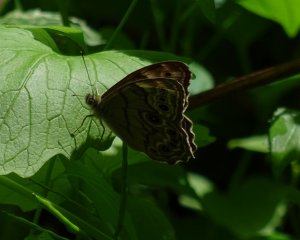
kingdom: Animalia
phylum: Arthropoda
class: Insecta
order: Lepidoptera
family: Nymphalidae
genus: Lethe
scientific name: Lethe anthedon
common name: Northern Pearly-Eye
